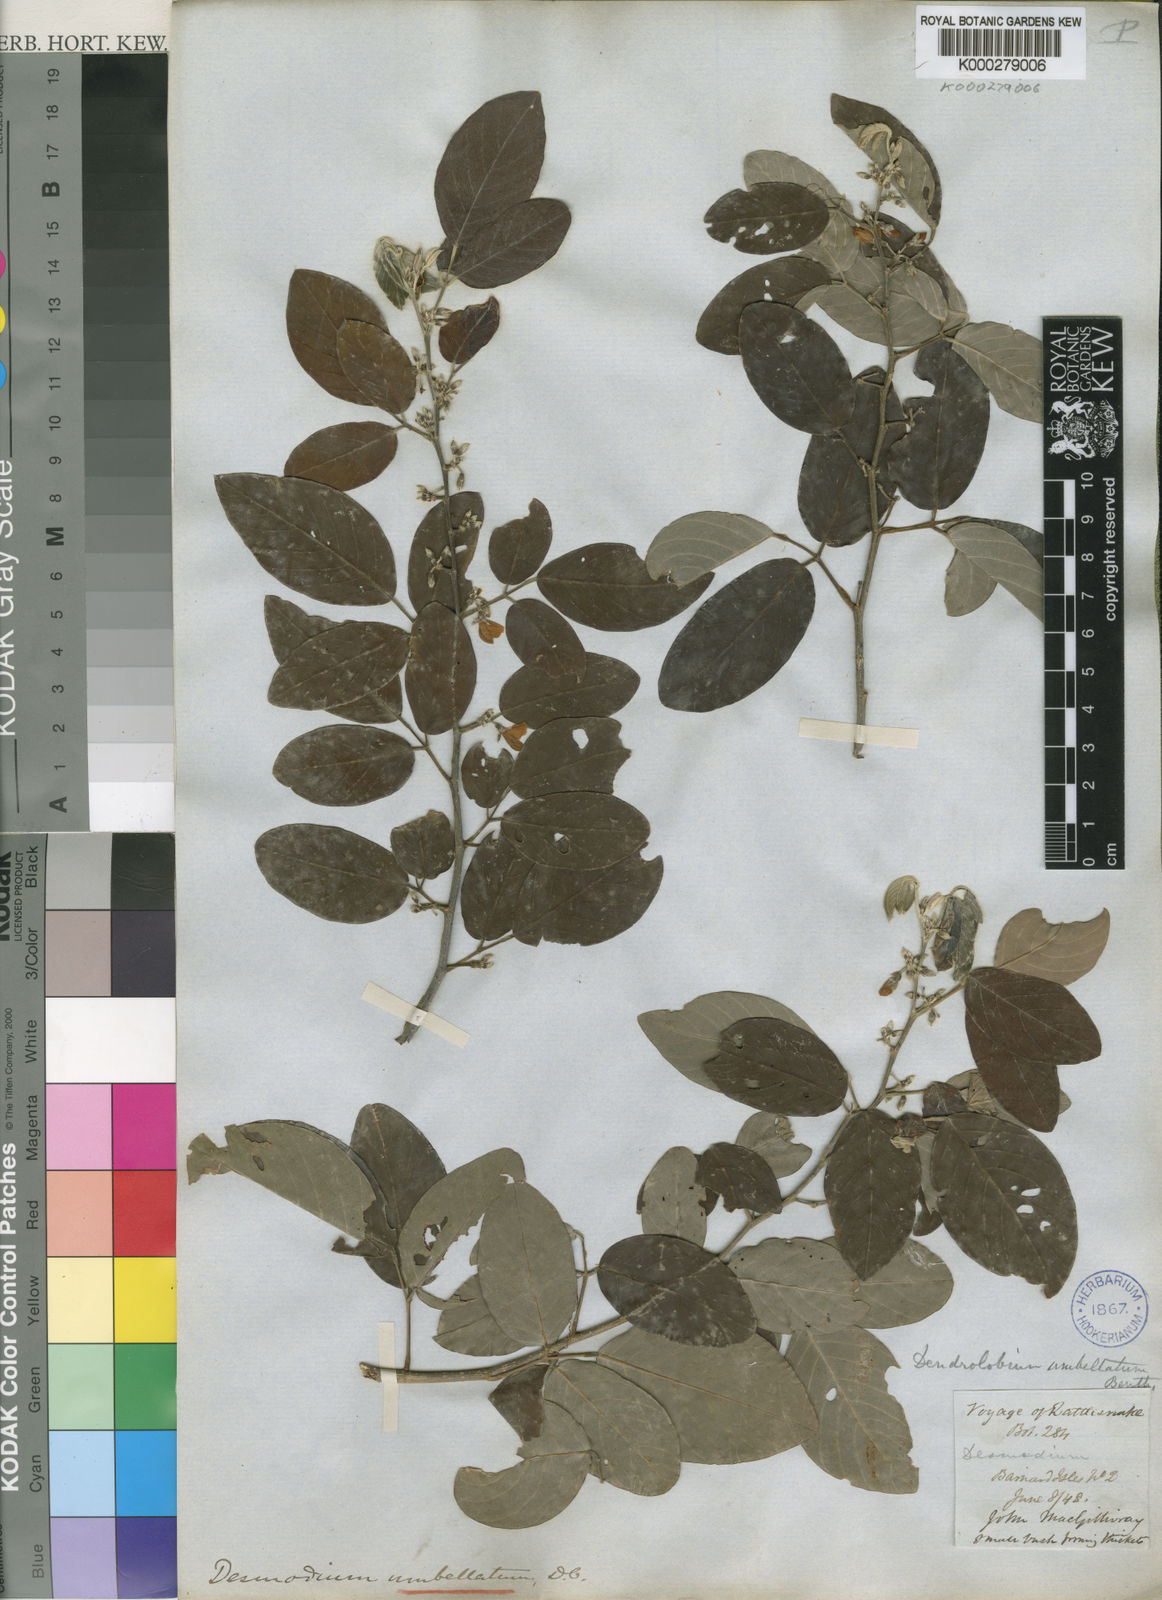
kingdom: Plantae
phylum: Tracheophyta
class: Magnoliopsida
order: Fabales
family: Fabaceae
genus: Dendrolobium
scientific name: Dendrolobium umbellatum
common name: Horsebush
